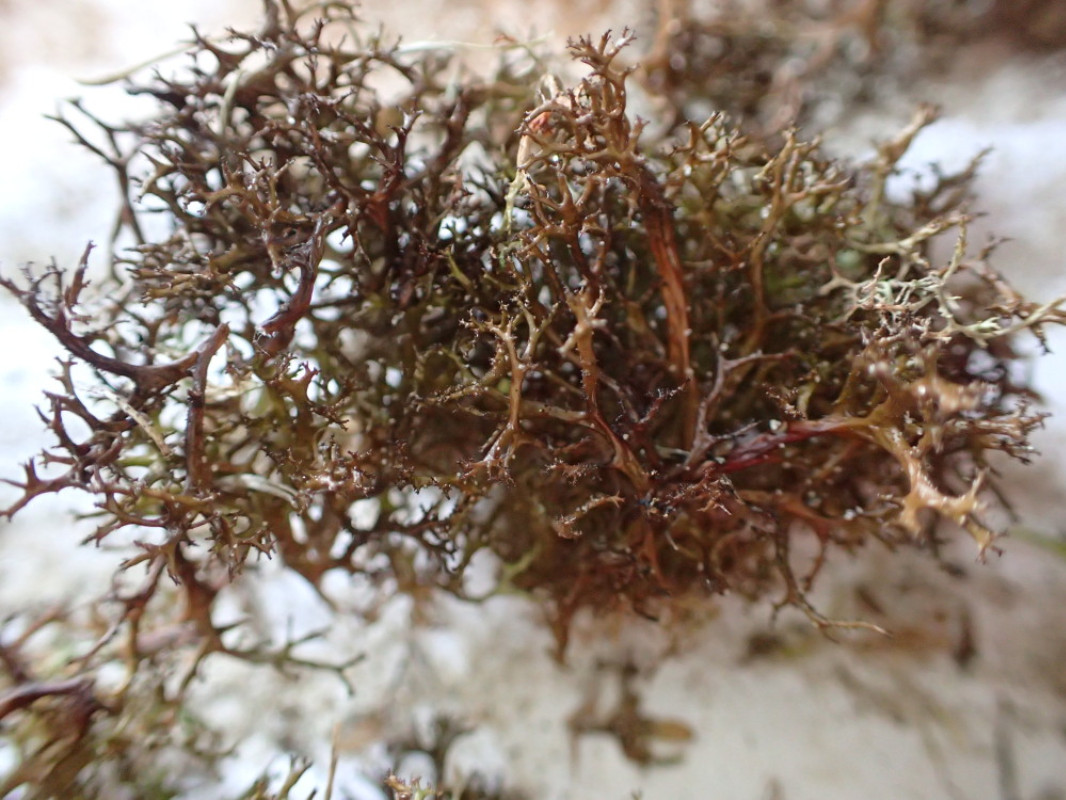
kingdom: Fungi
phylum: Ascomycota
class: Lecanoromycetes
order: Lecanorales
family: Parmeliaceae
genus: Cetraria
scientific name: Cetraria aculeata
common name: grubet tjørnelav
